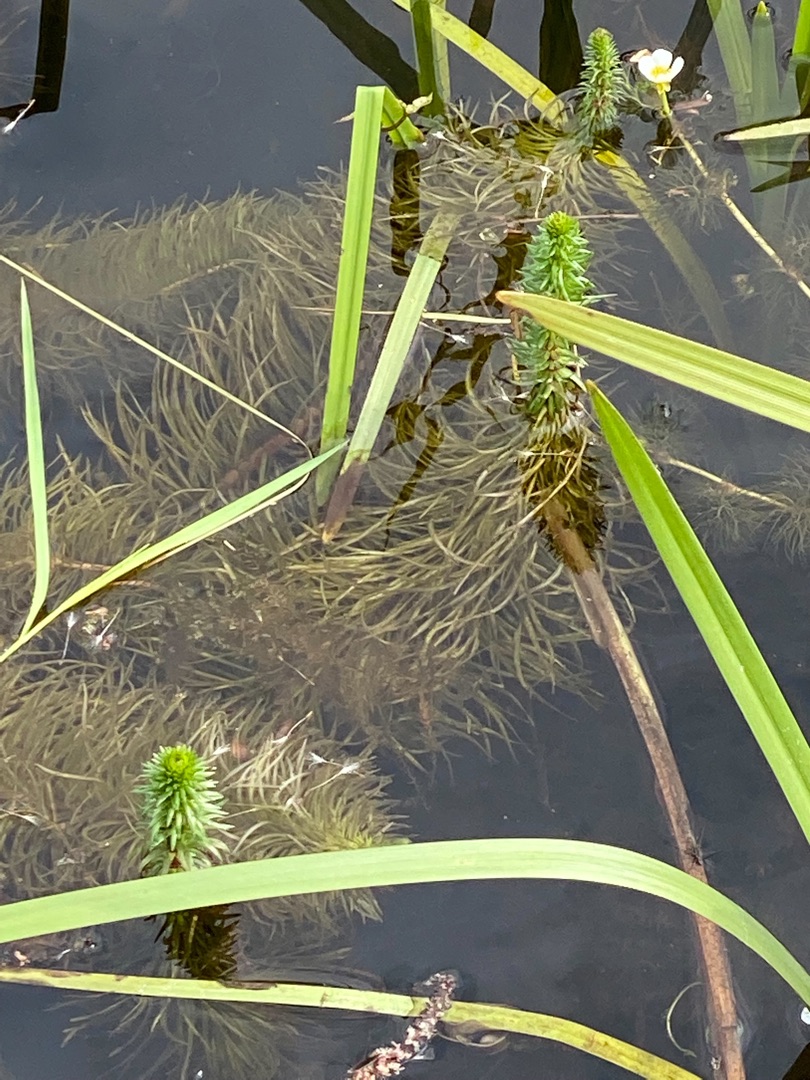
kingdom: Plantae
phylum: Tracheophyta
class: Magnoliopsida
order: Lamiales
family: Plantaginaceae
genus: Hippuris
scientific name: Hippuris vulgaris
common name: Vandspir
